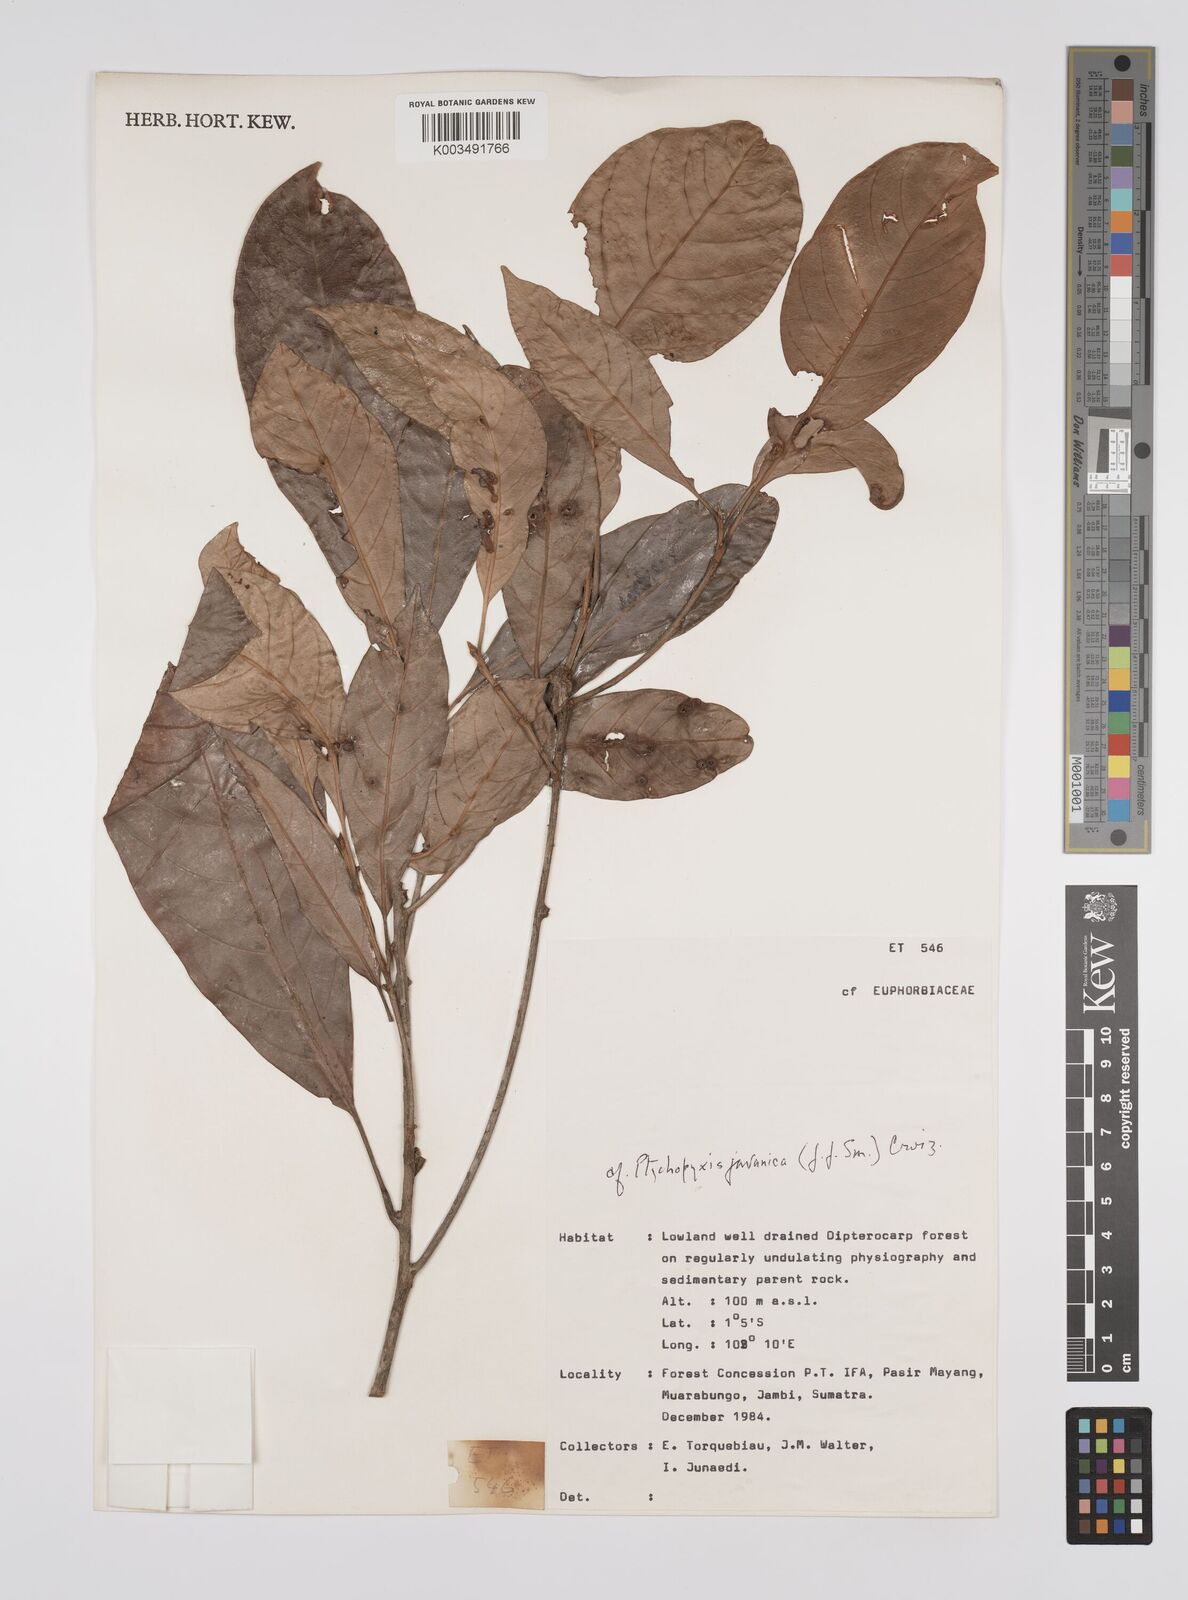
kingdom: Plantae
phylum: Tracheophyta
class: Magnoliopsida
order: Malpighiales
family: Euphorbiaceae
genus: Ptychopyxis
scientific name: Ptychopyxis javanica
